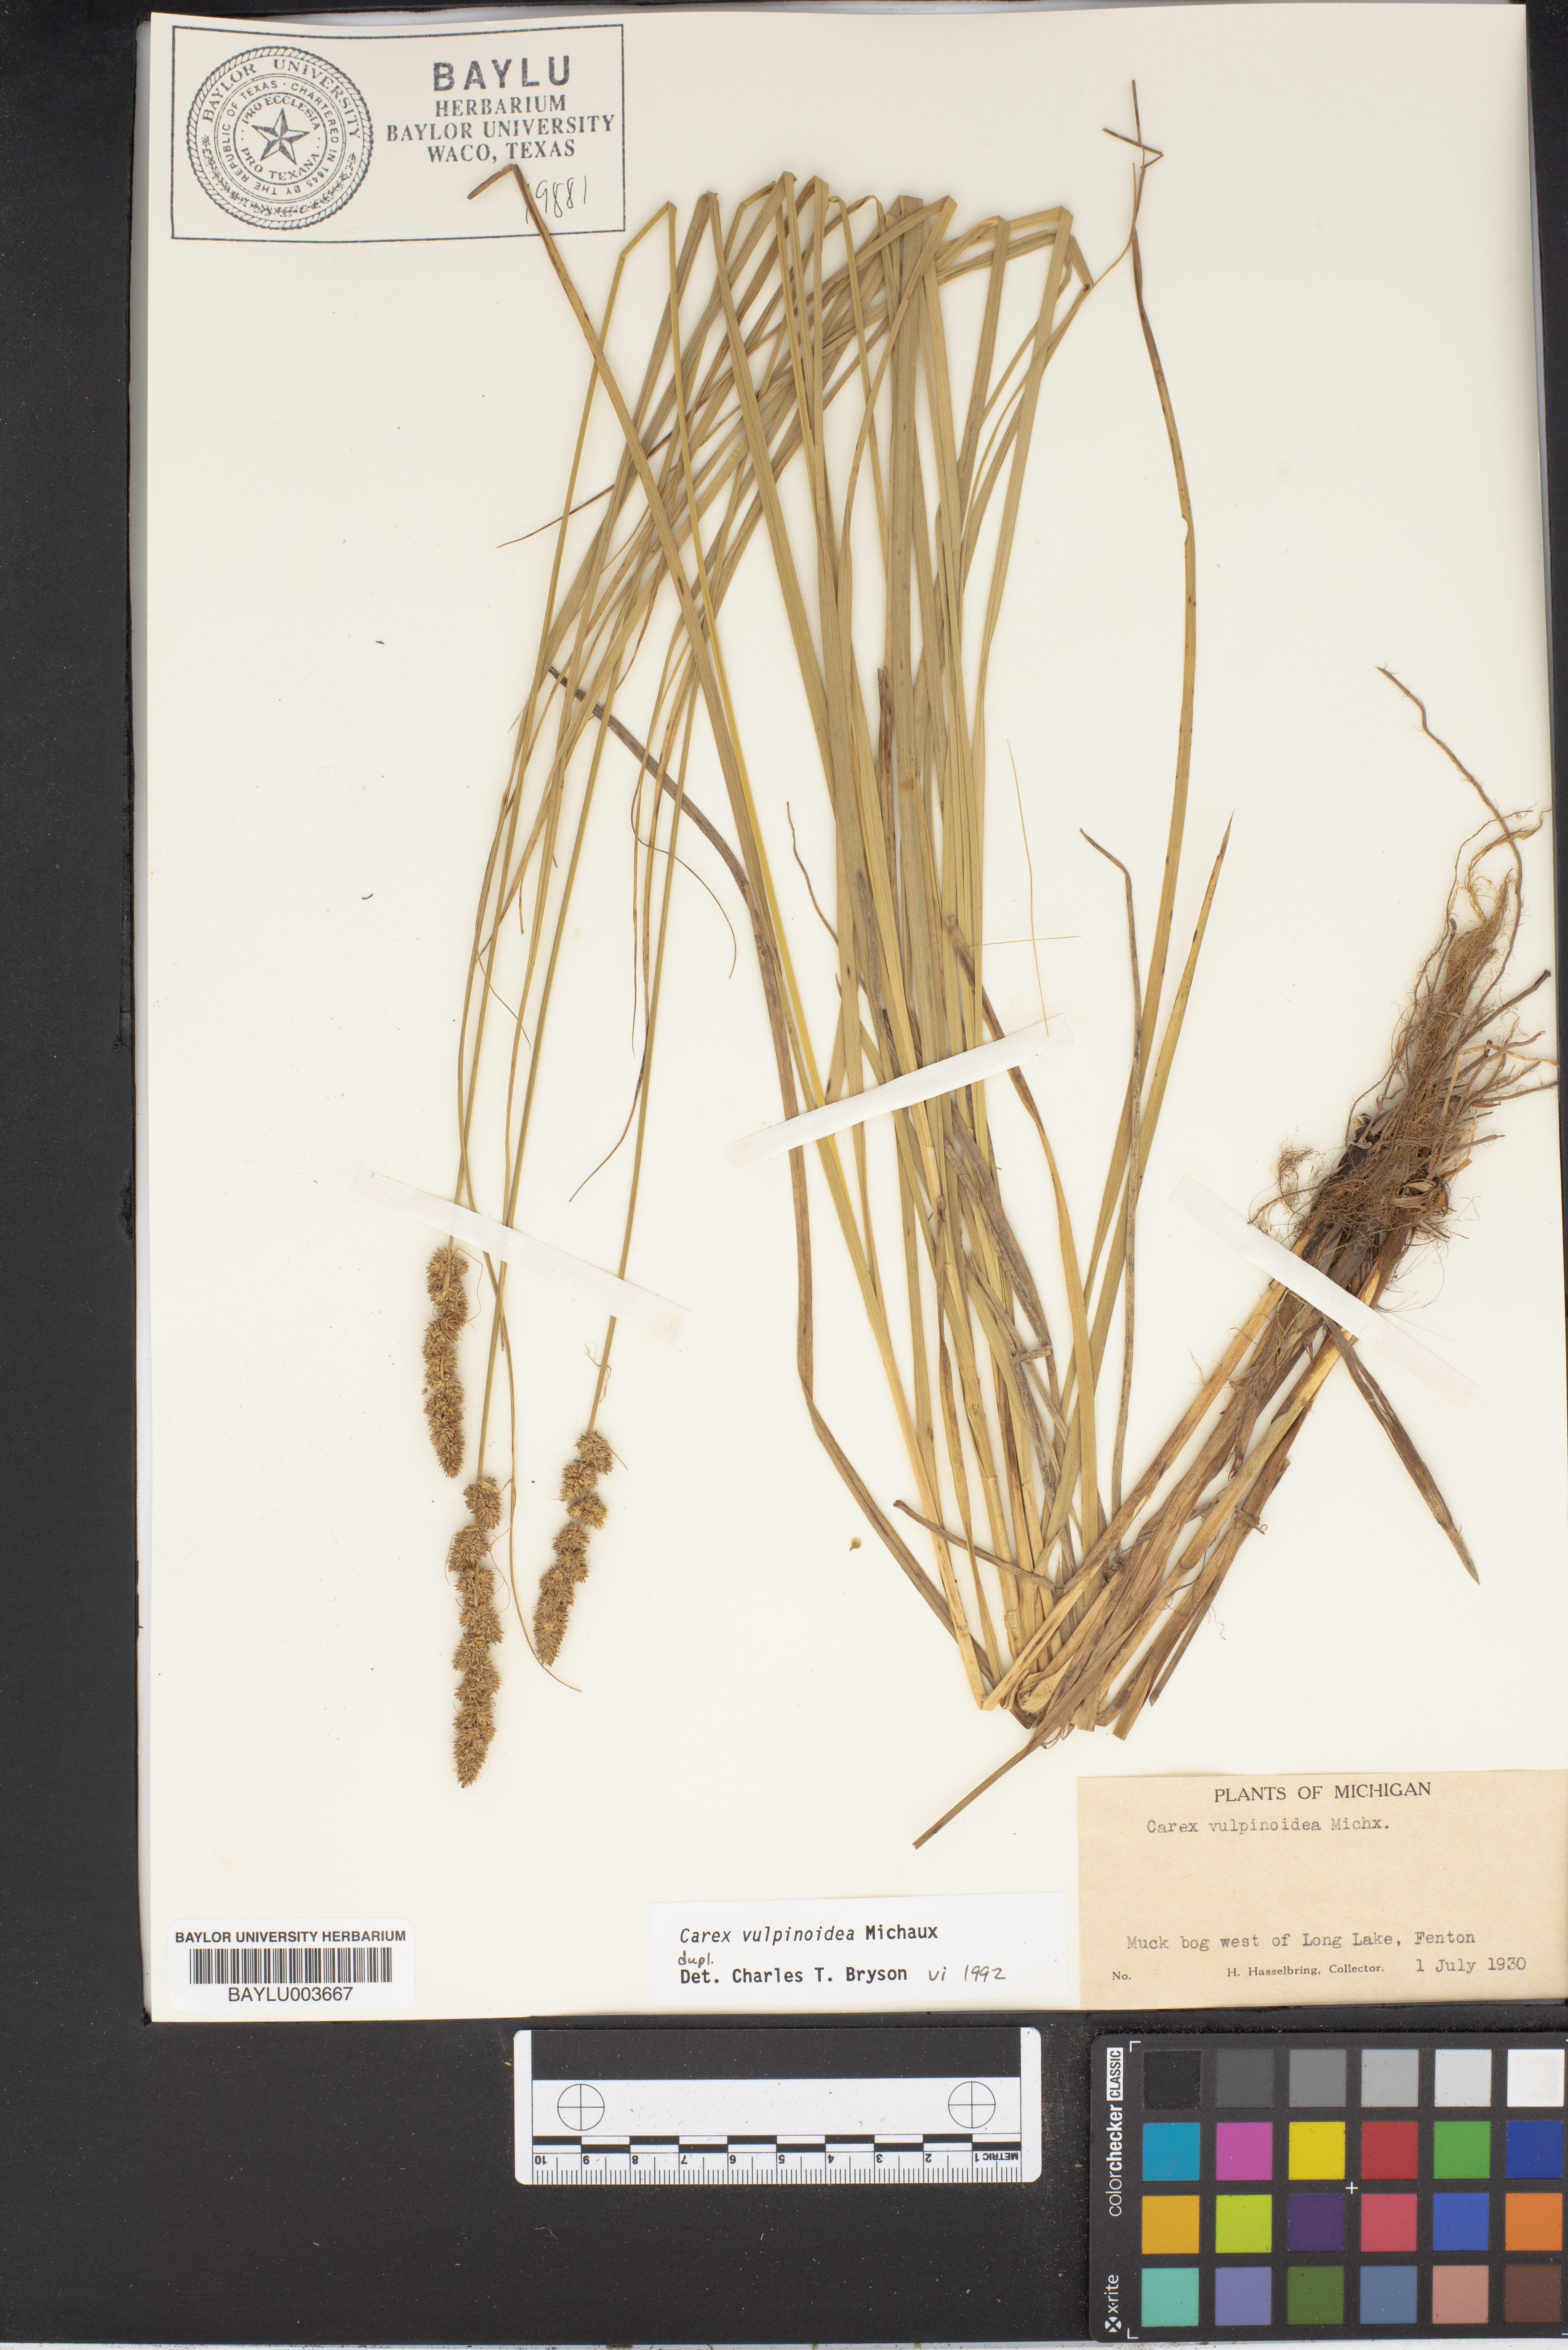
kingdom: Plantae
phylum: Tracheophyta
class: Liliopsida
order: Poales
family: Cyperaceae
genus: Carex
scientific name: Carex vulpinoidea
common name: American fox-sedge
